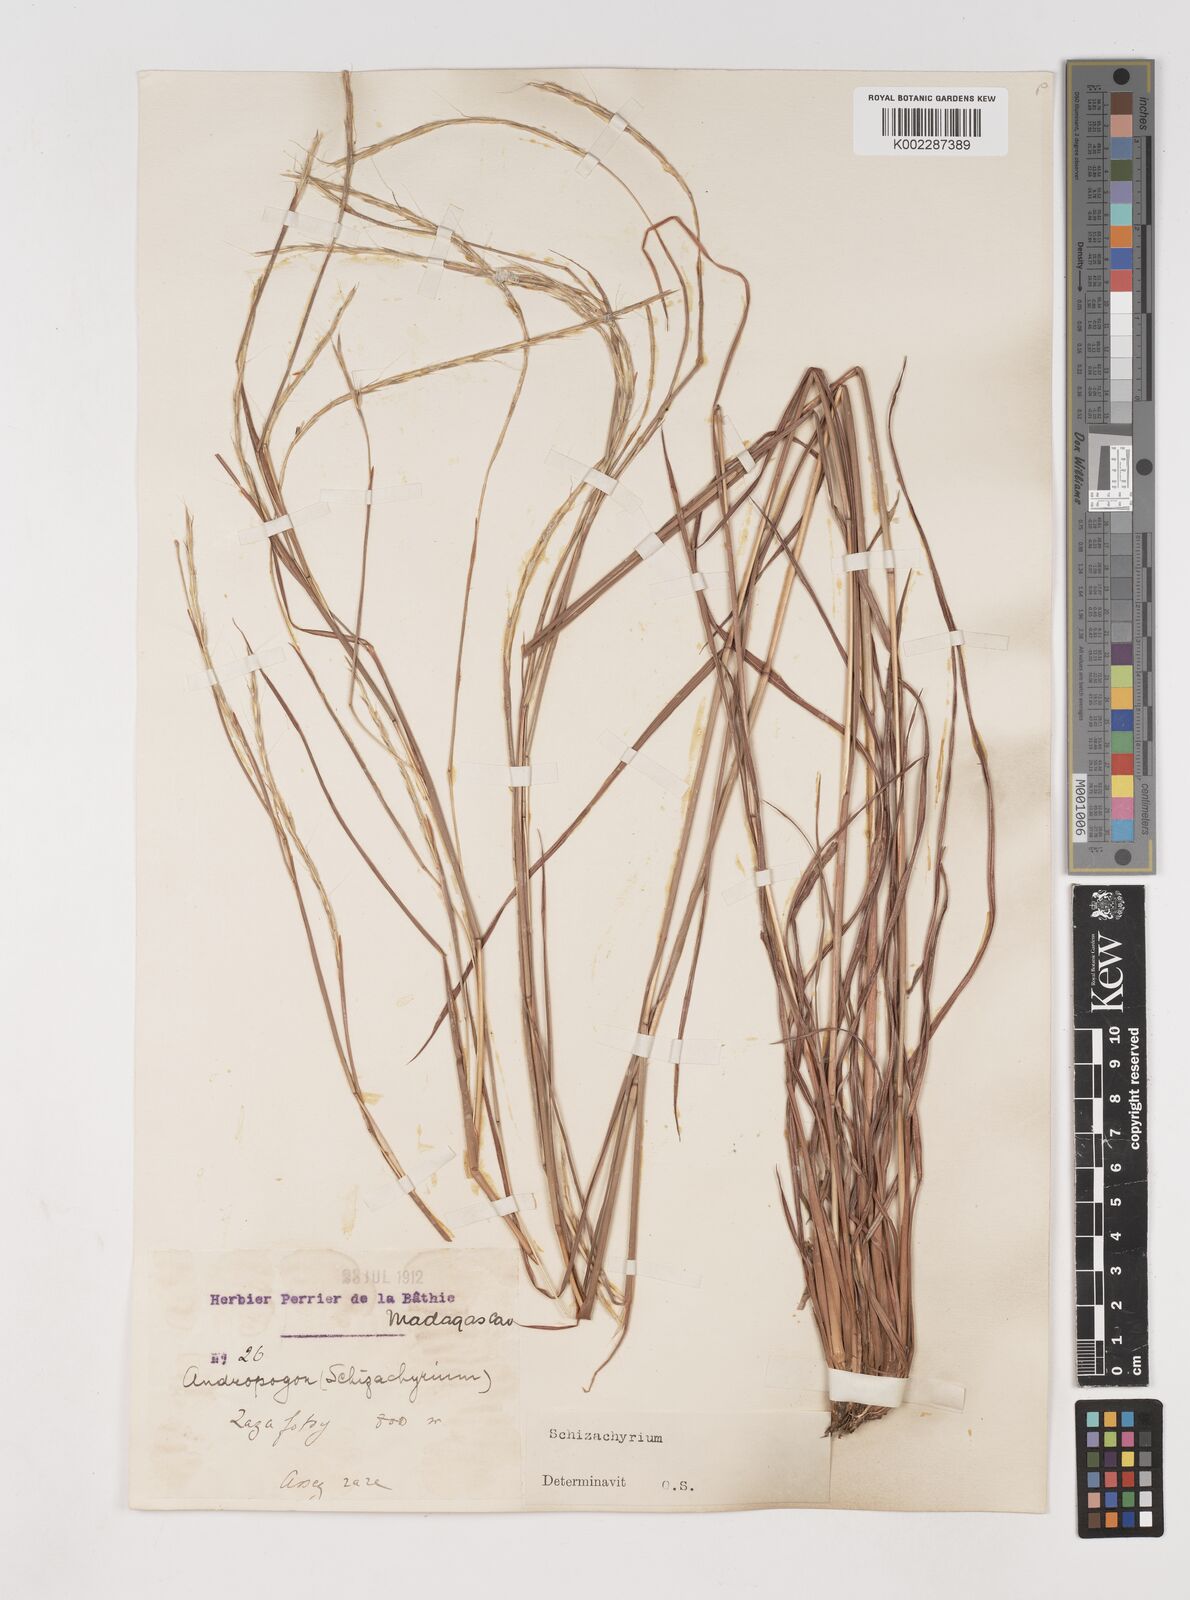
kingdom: Plantae
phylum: Tracheophyta
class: Liliopsida
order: Poales
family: Poaceae
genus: Schizachyrium
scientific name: Schizachyrium sanguineum
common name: Crimson bluestem
